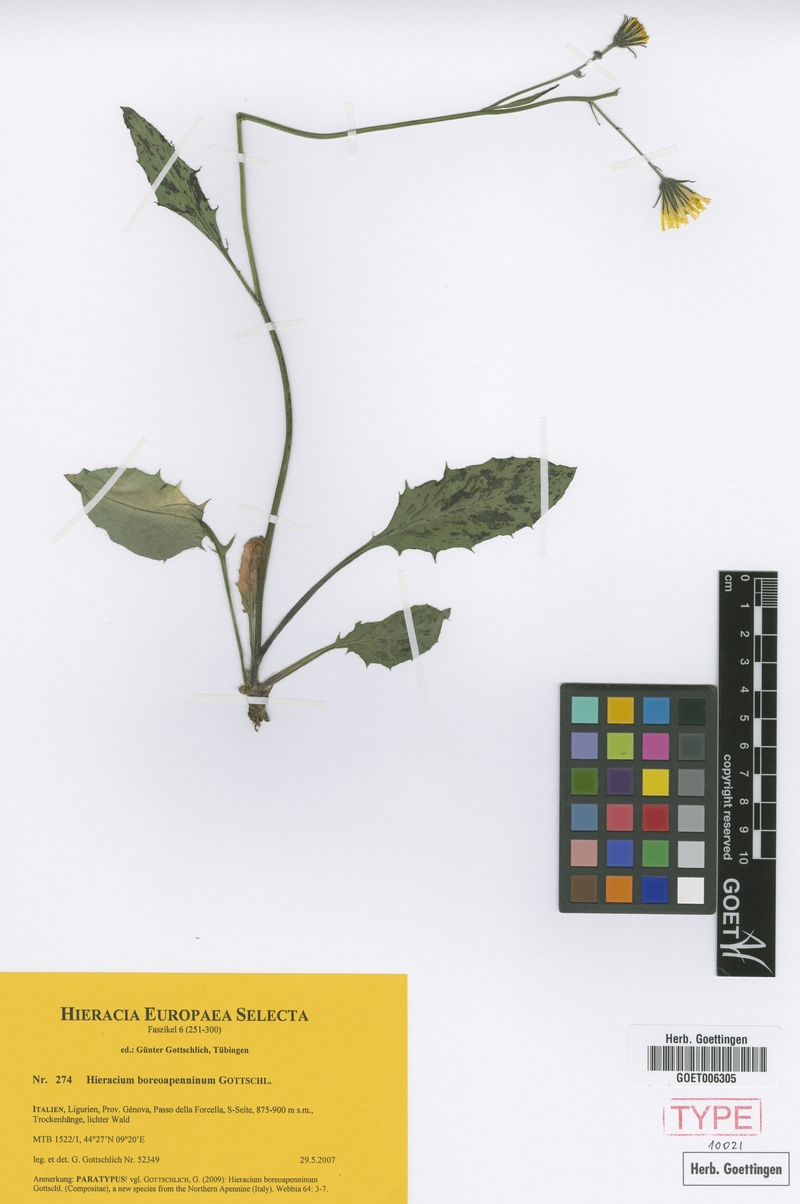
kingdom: Plantae
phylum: Tracheophyta
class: Magnoliopsida
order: Asterales
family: Asteraceae
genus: Hieracium
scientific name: Hieracium boreoapenninum
